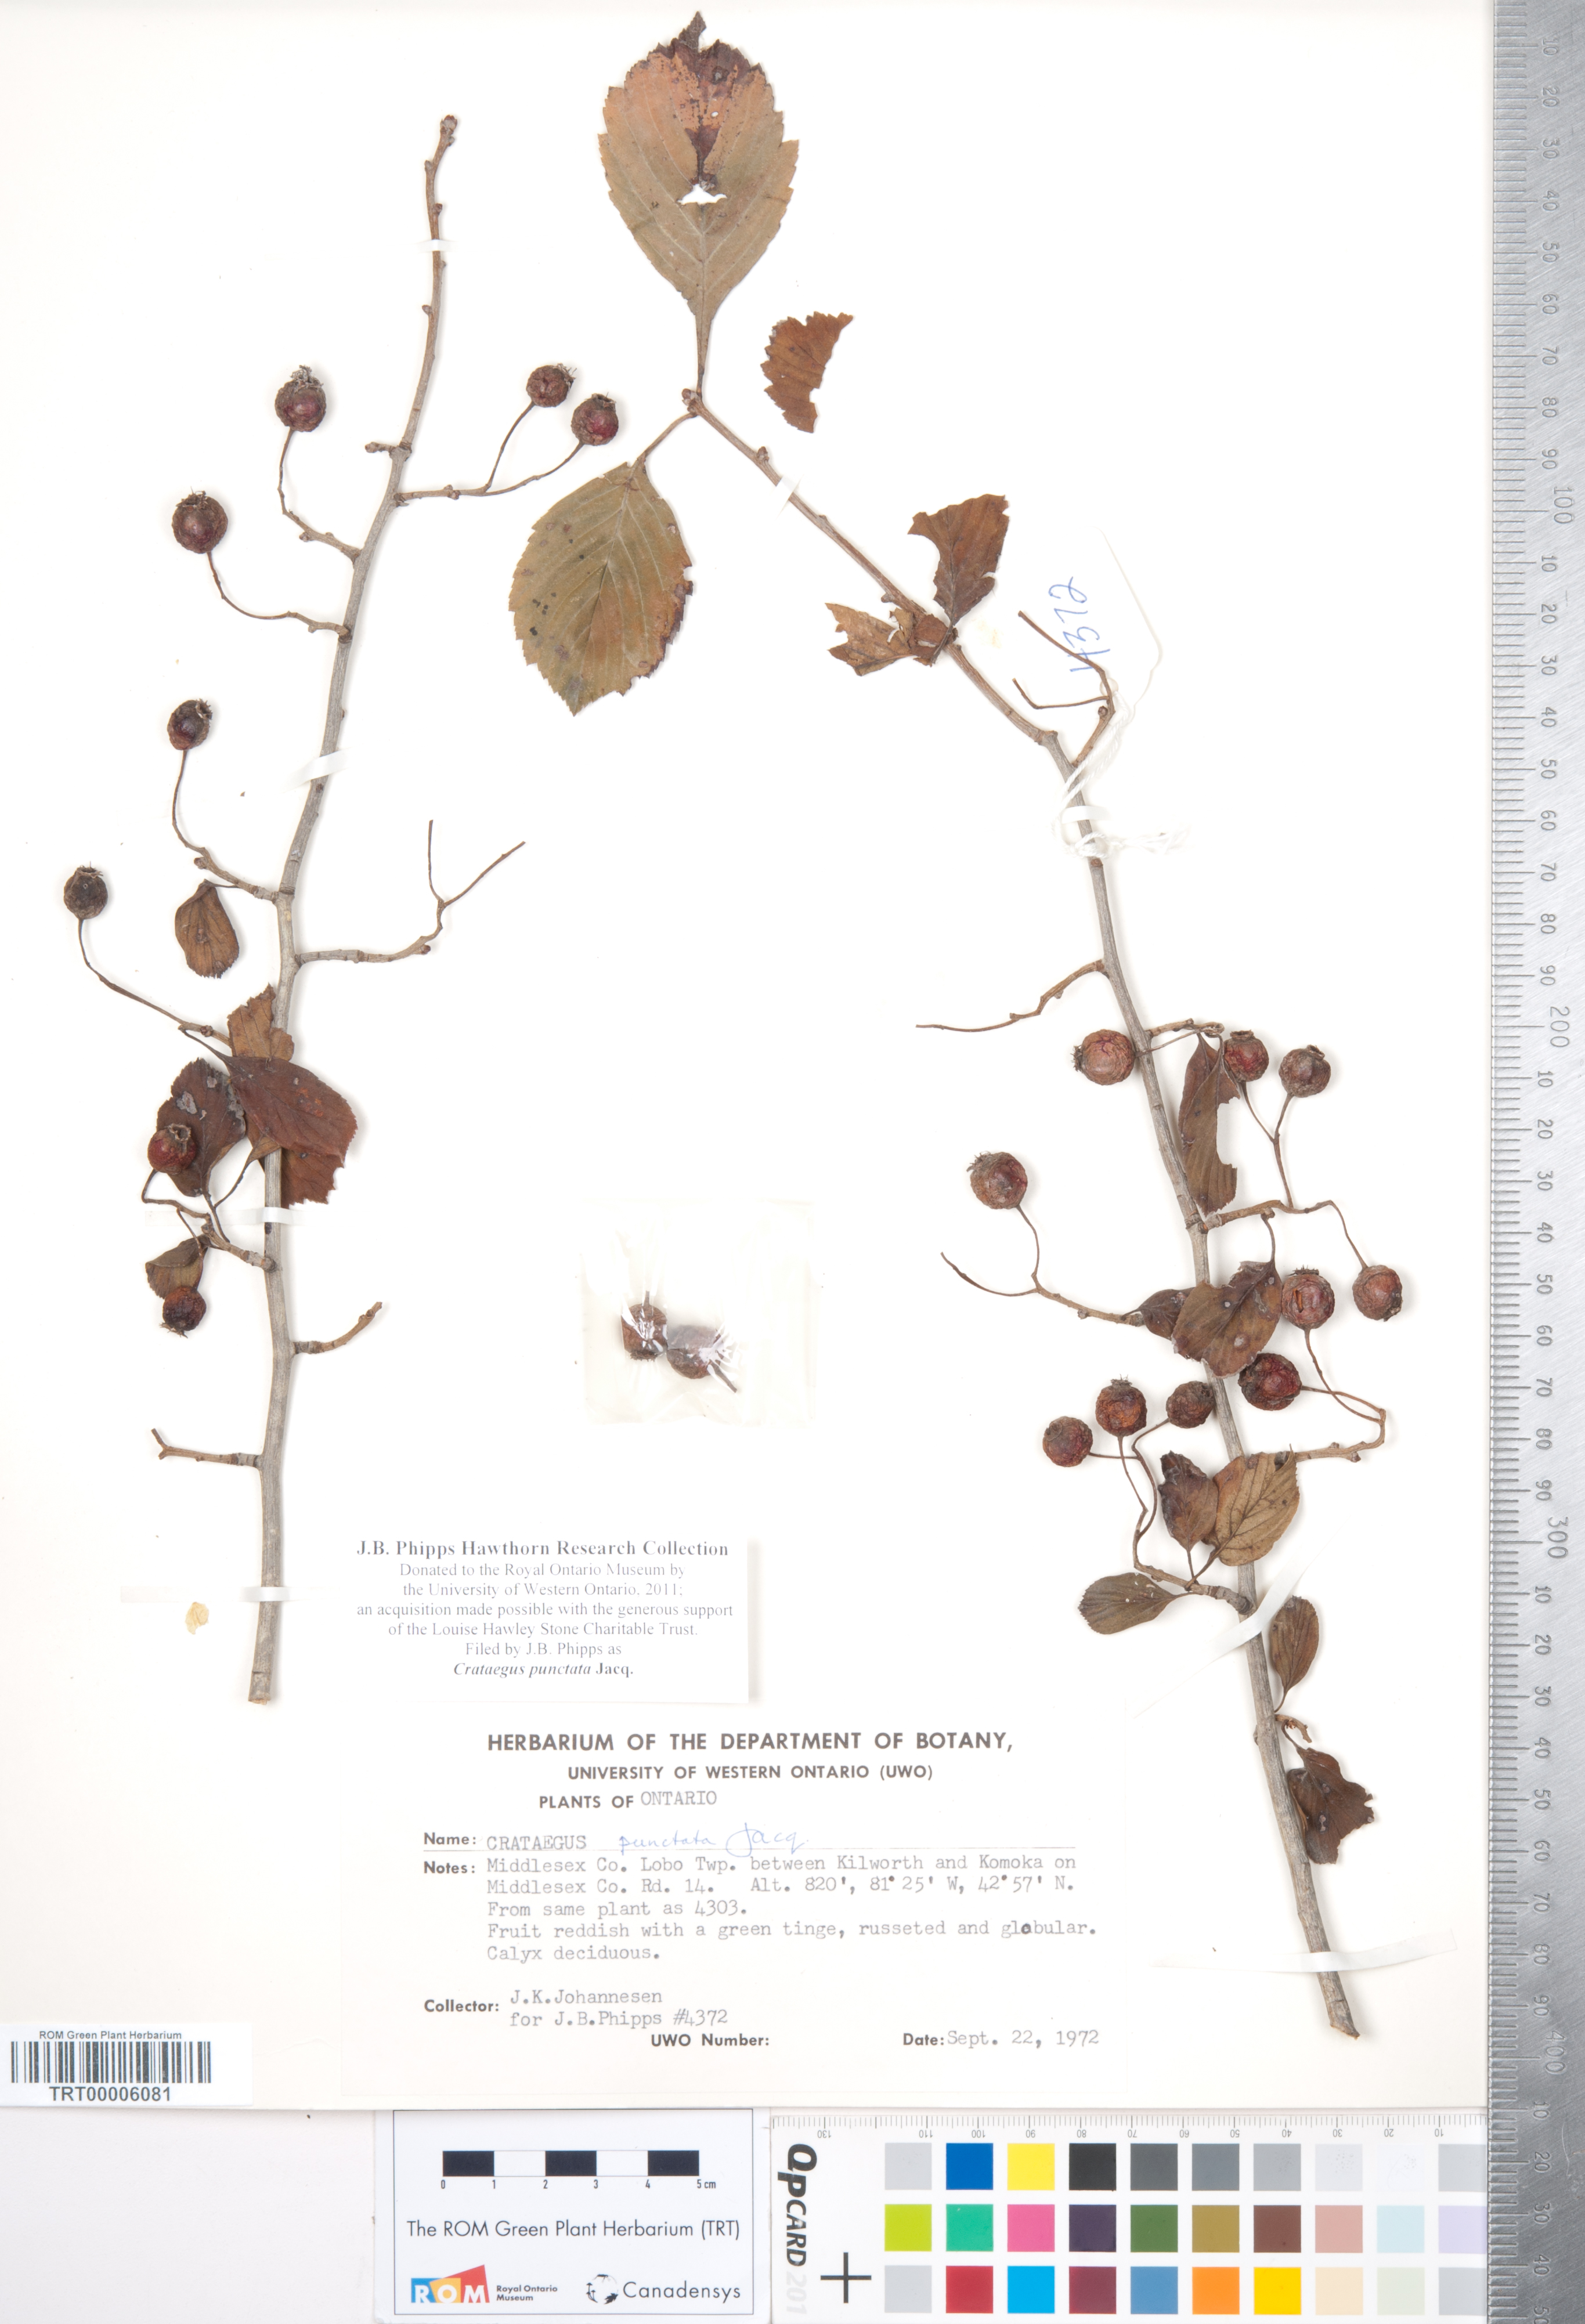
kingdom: Plantae
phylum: Tracheophyta
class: Magnoliopsida
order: Rosales
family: Rosaceae
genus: Crataegus
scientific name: Crataegus punctata
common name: Dotted hawthorn
